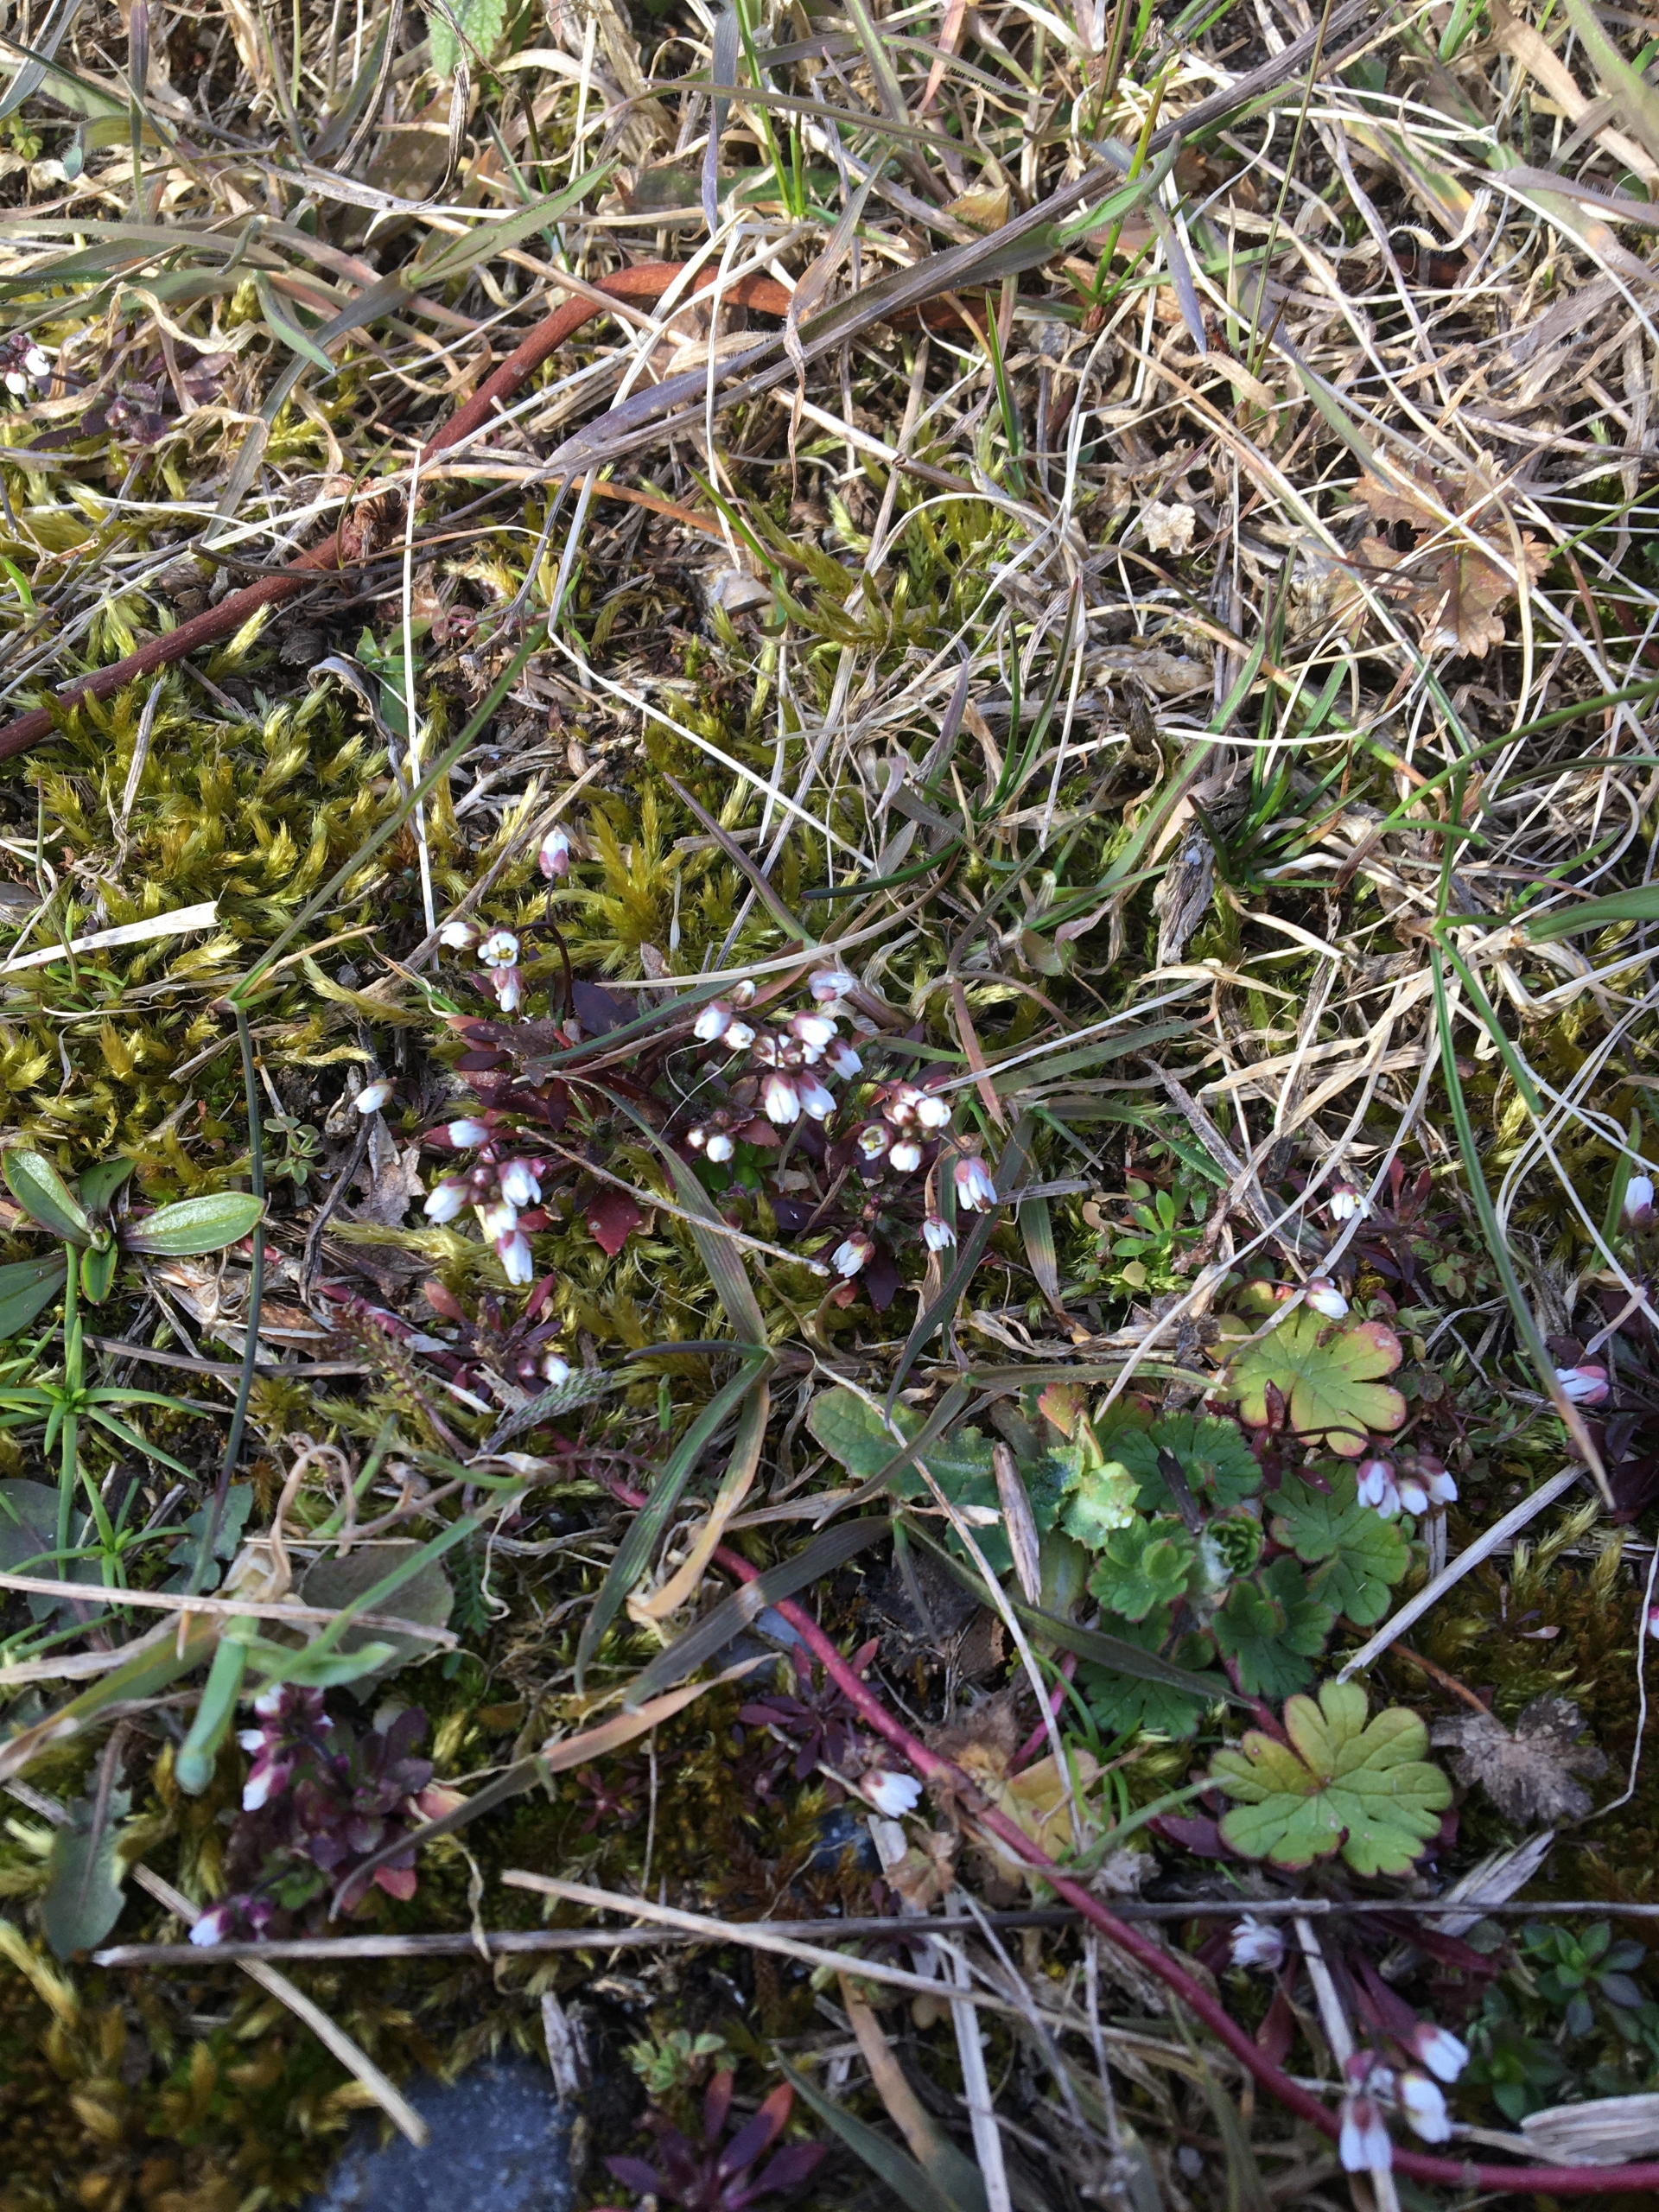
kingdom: Plantae
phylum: Tracheophyta
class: Magnoliopsida
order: Brassicales
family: Brassicaceae
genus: Draba
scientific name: Draba verna
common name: Vår-gæslingeblomst
